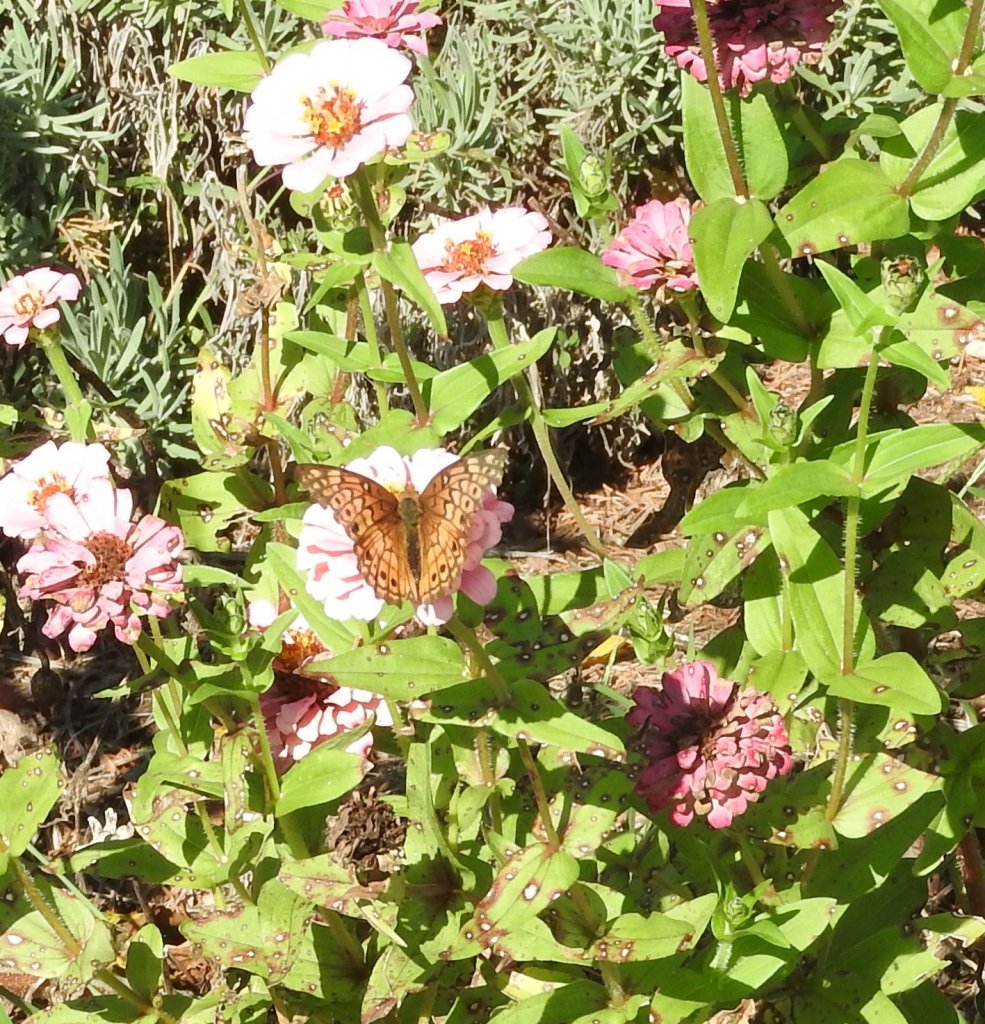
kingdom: Animalia
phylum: Arthropoda
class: Insecta
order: Lepidoptera
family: Nymphalidae
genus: Euptoieta
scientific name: Euptoieta claudia
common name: Variegated Fritillary
